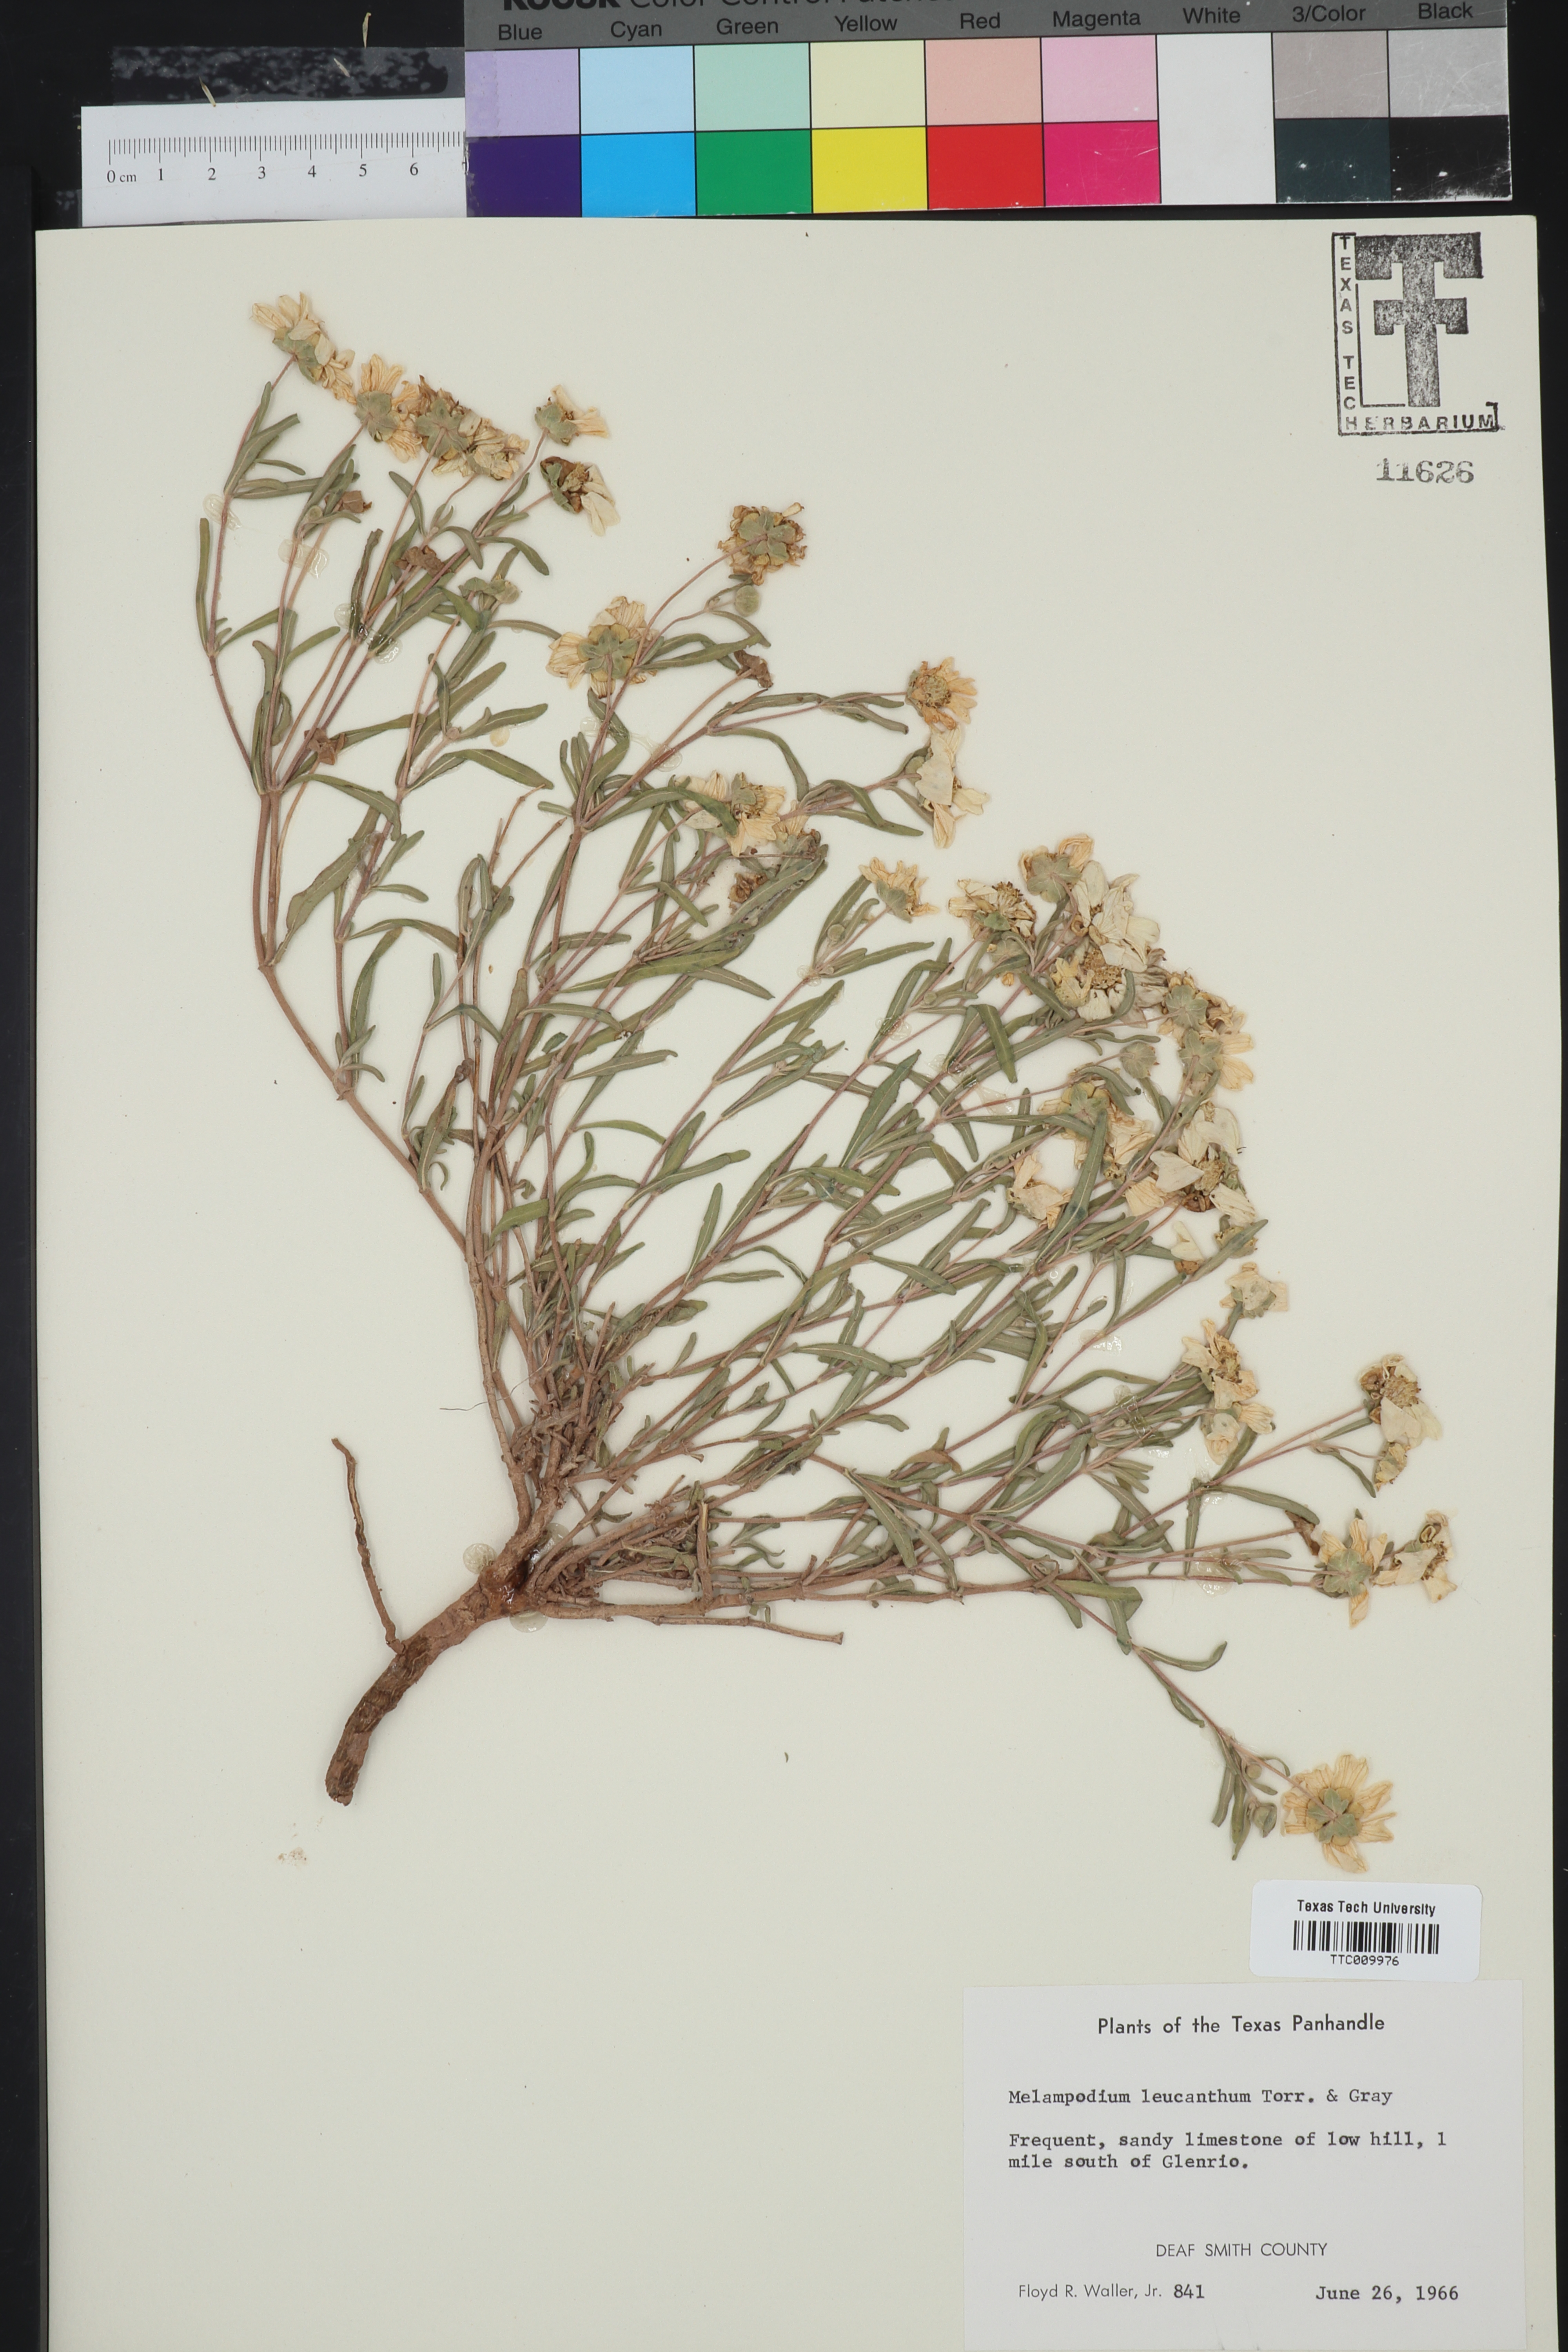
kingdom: Plantae
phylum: Tracheophyta
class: Magnoliopsida
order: Asterales
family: Asteraceae
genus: Melampodium
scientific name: Melampodium leucanthum
